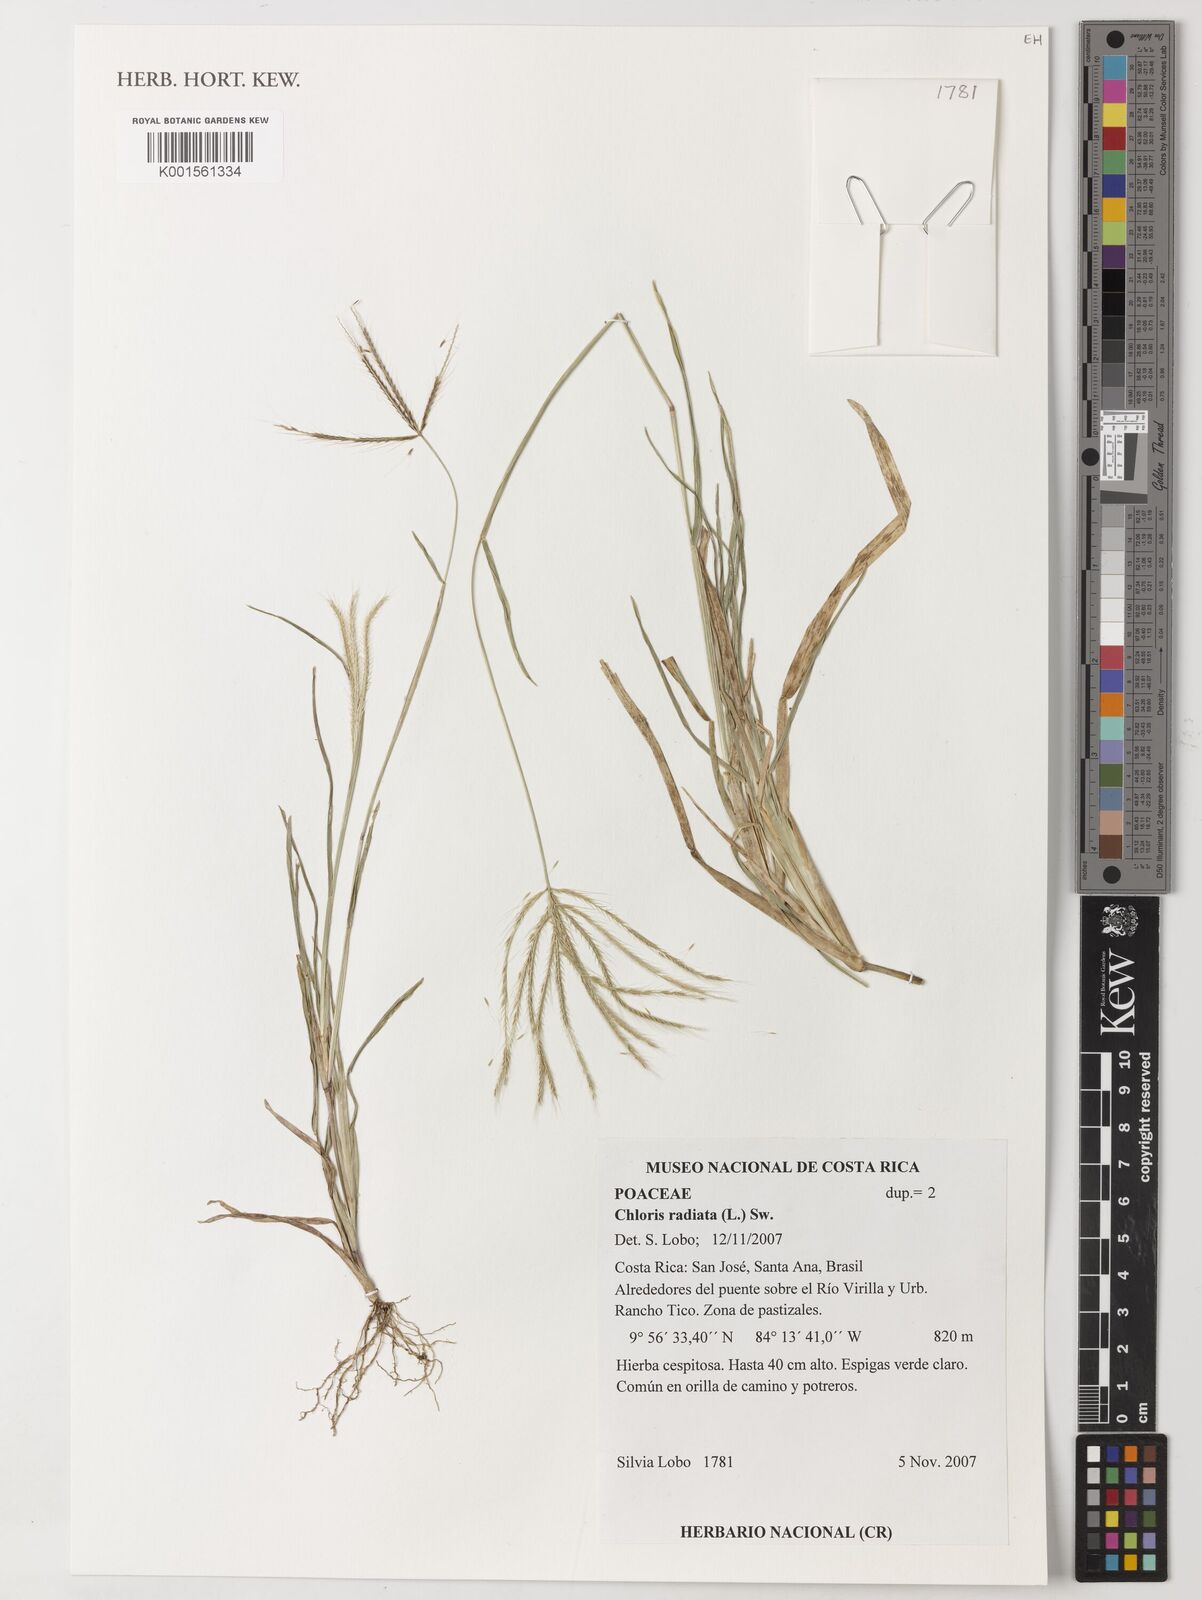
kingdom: Plantae
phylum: Tracheophyta
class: Liliopsida
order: Poales
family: Poaceae
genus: Chloris
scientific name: Chloris radiata
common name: Radiate fingergrass
